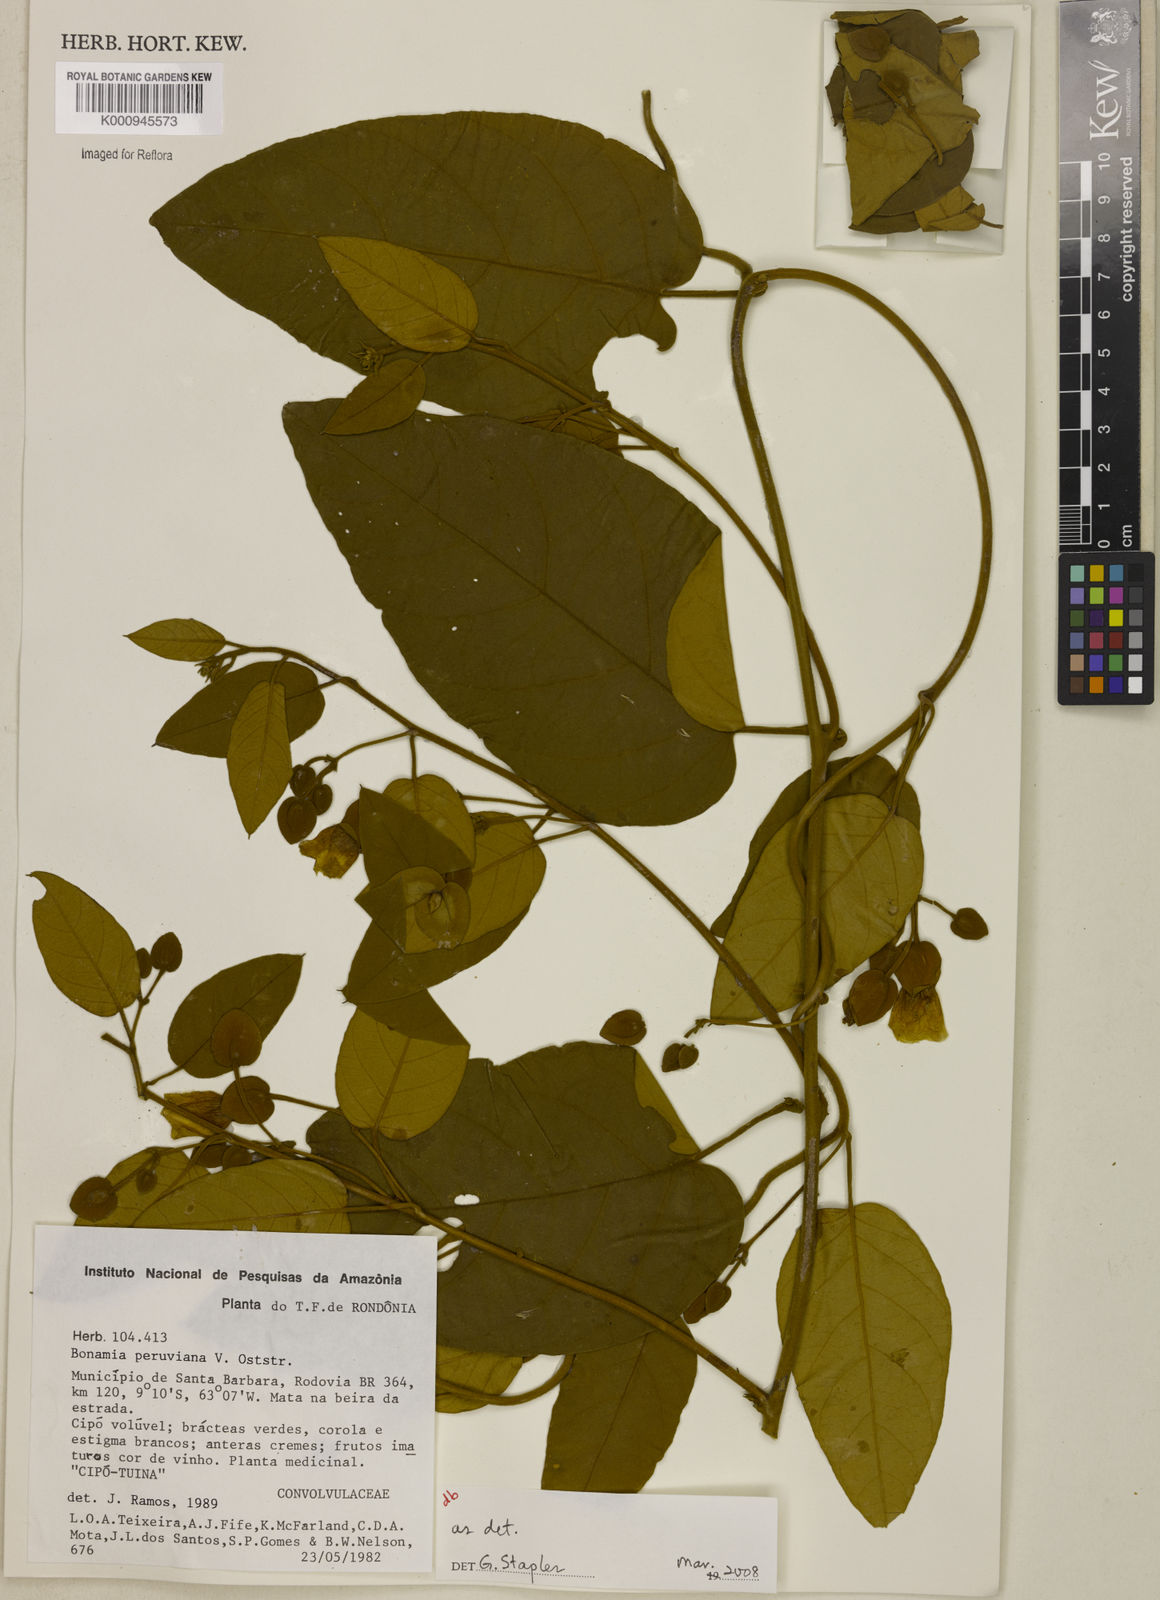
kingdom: Plantae
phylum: Tracheophyta
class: Magnoliopsida
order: Solanales
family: Convolvulaceae
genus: Bonamia
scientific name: Bonamia peruviana
